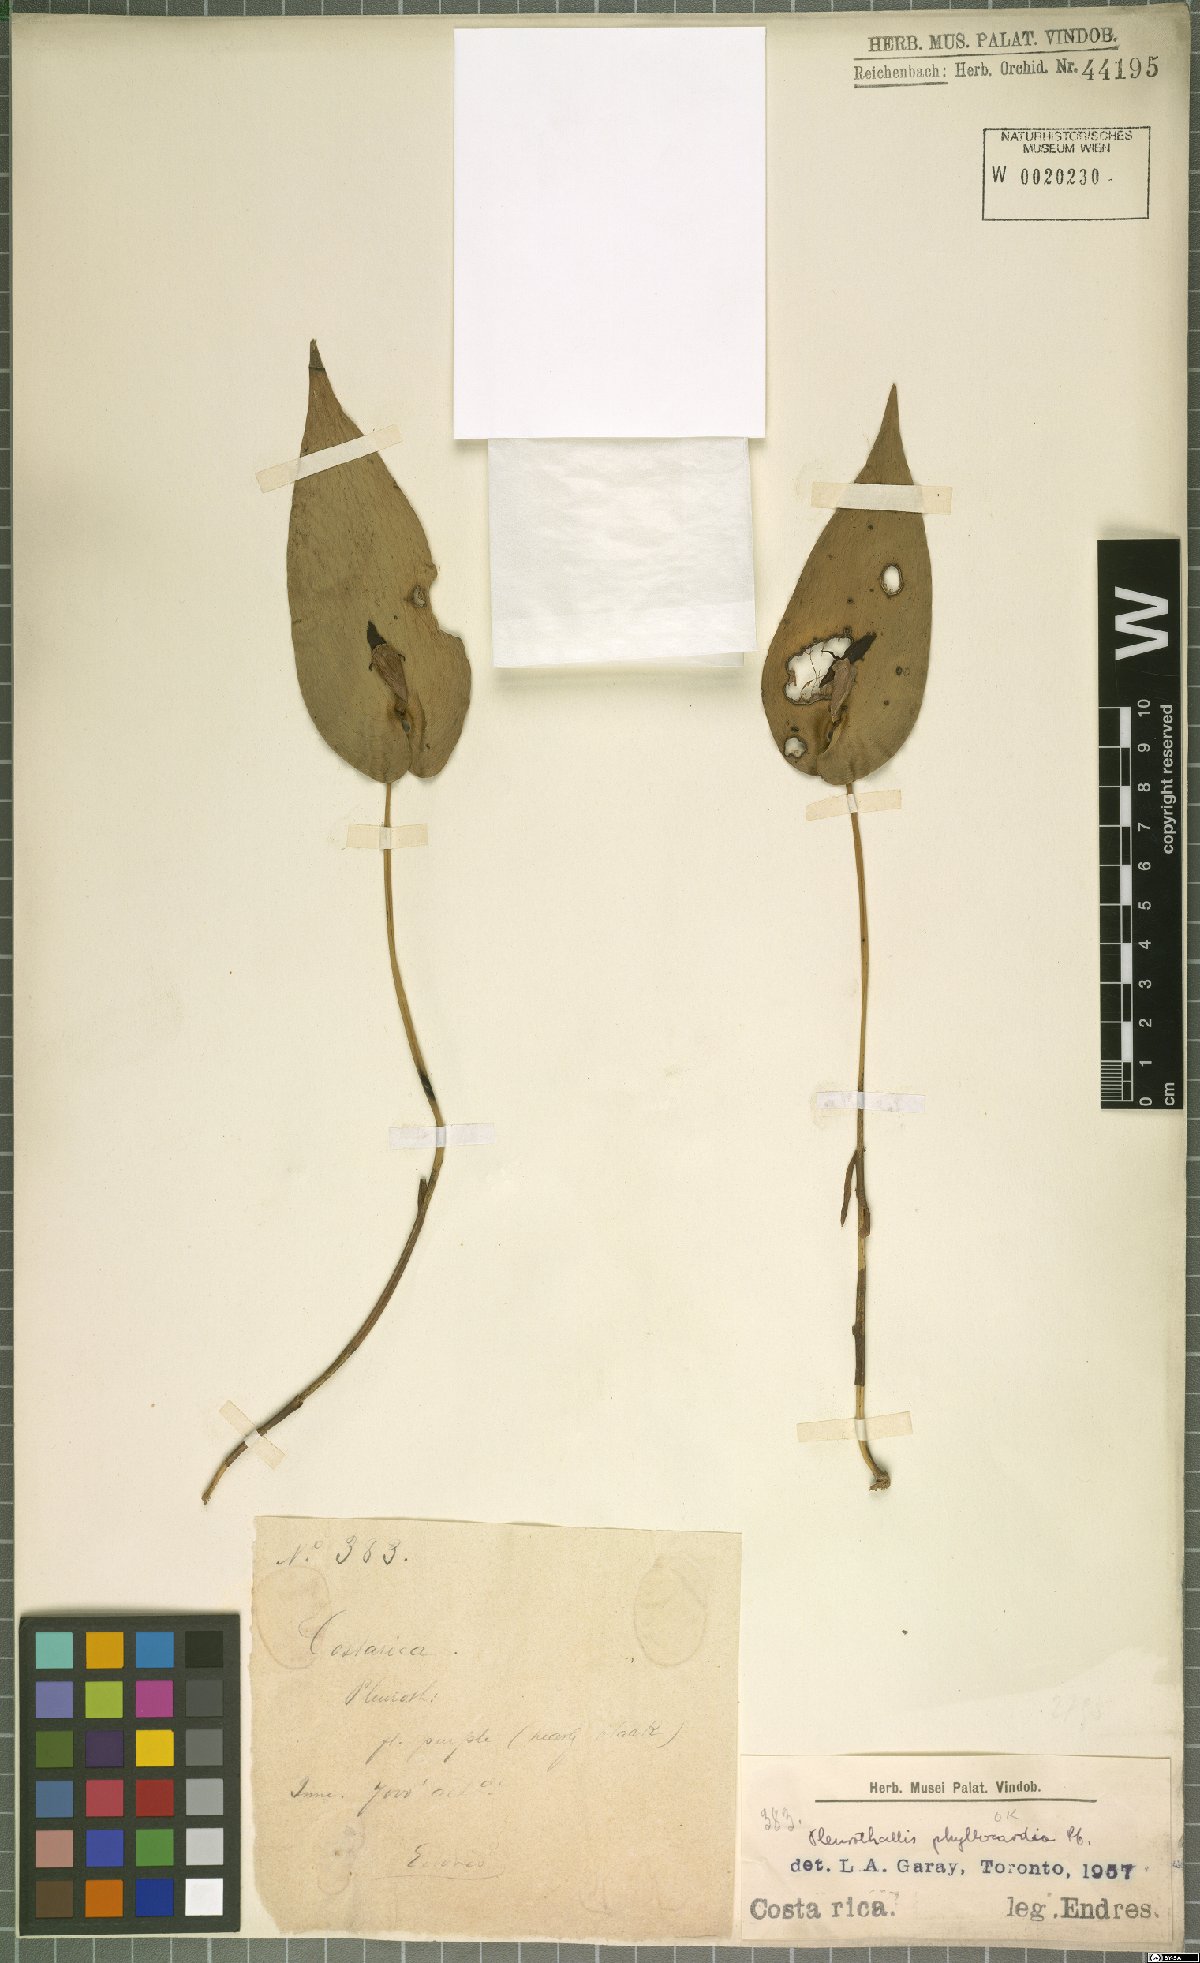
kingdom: Plantae
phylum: Tracheophyta
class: Liliopsida
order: Asparagales
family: Orchidaceae
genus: Pleurothallis
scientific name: Pleurothallis phyllocardia
